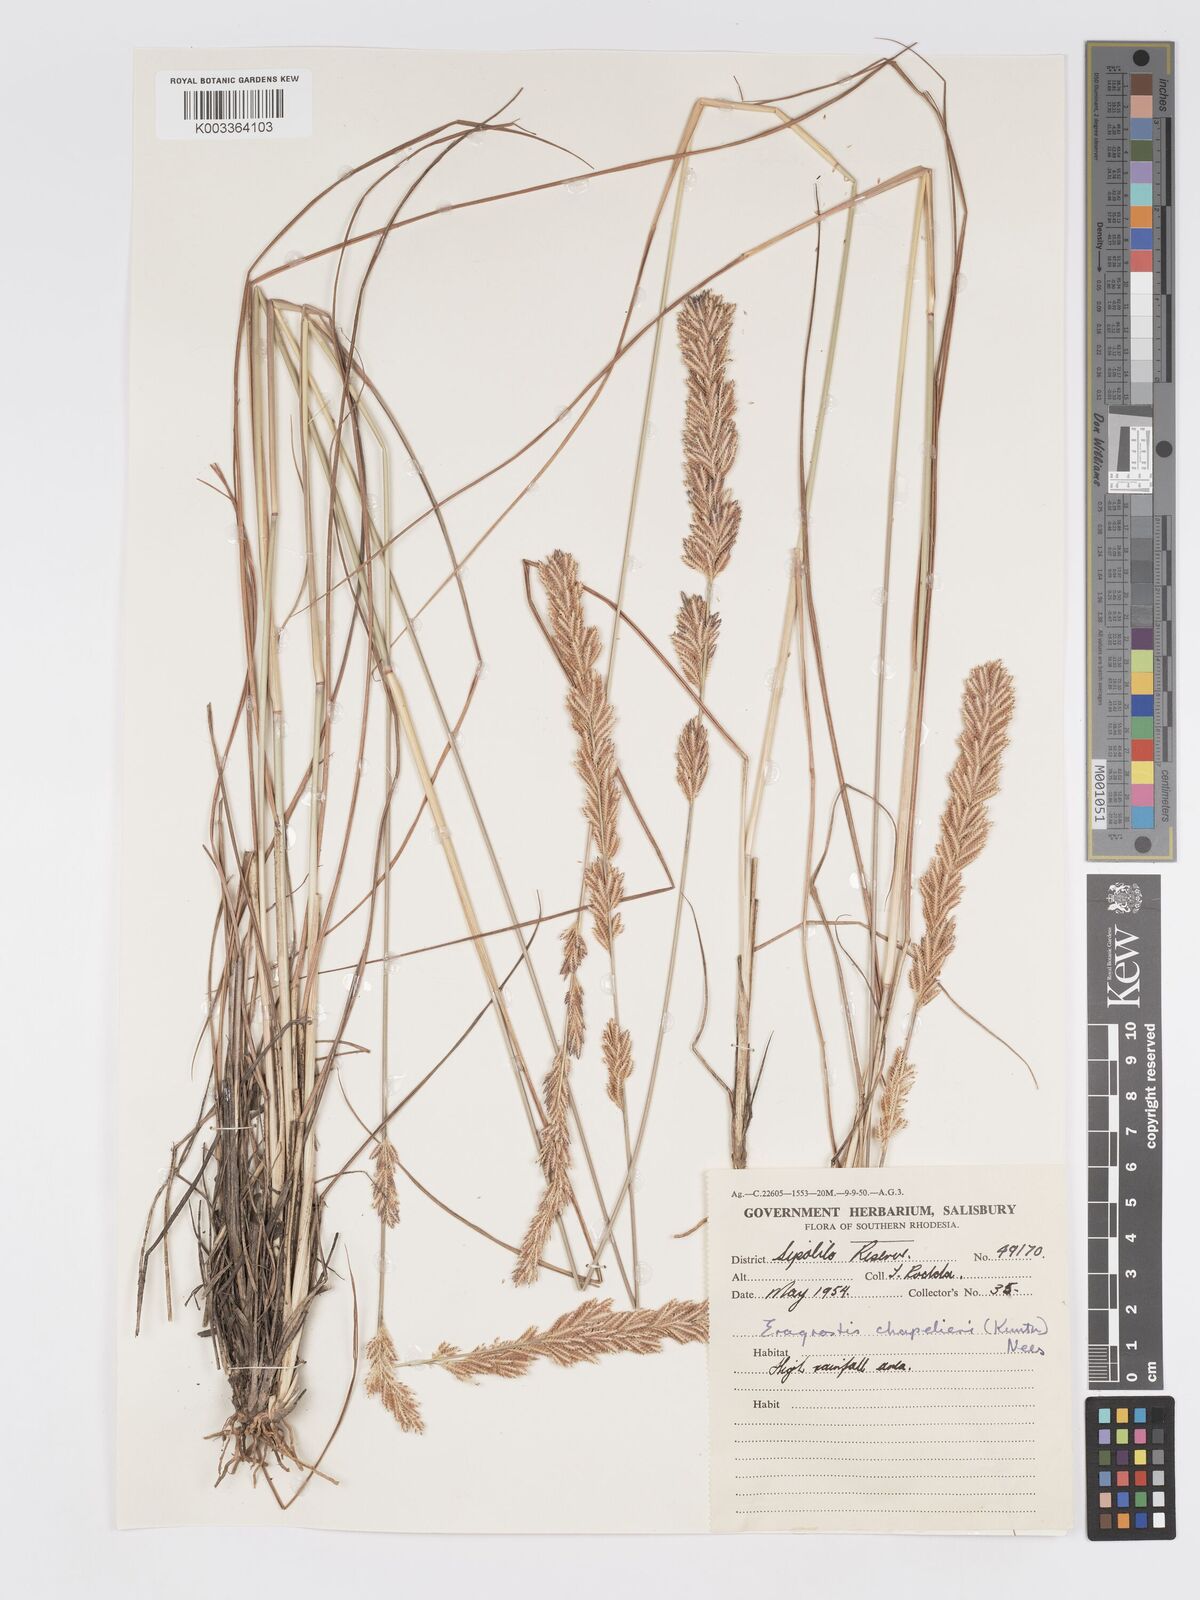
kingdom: Plantae
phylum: Tracheophyta
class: Liliopsida
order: Poales
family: Poaceae
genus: Eragrostis
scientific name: Eragrostis chapelieri
